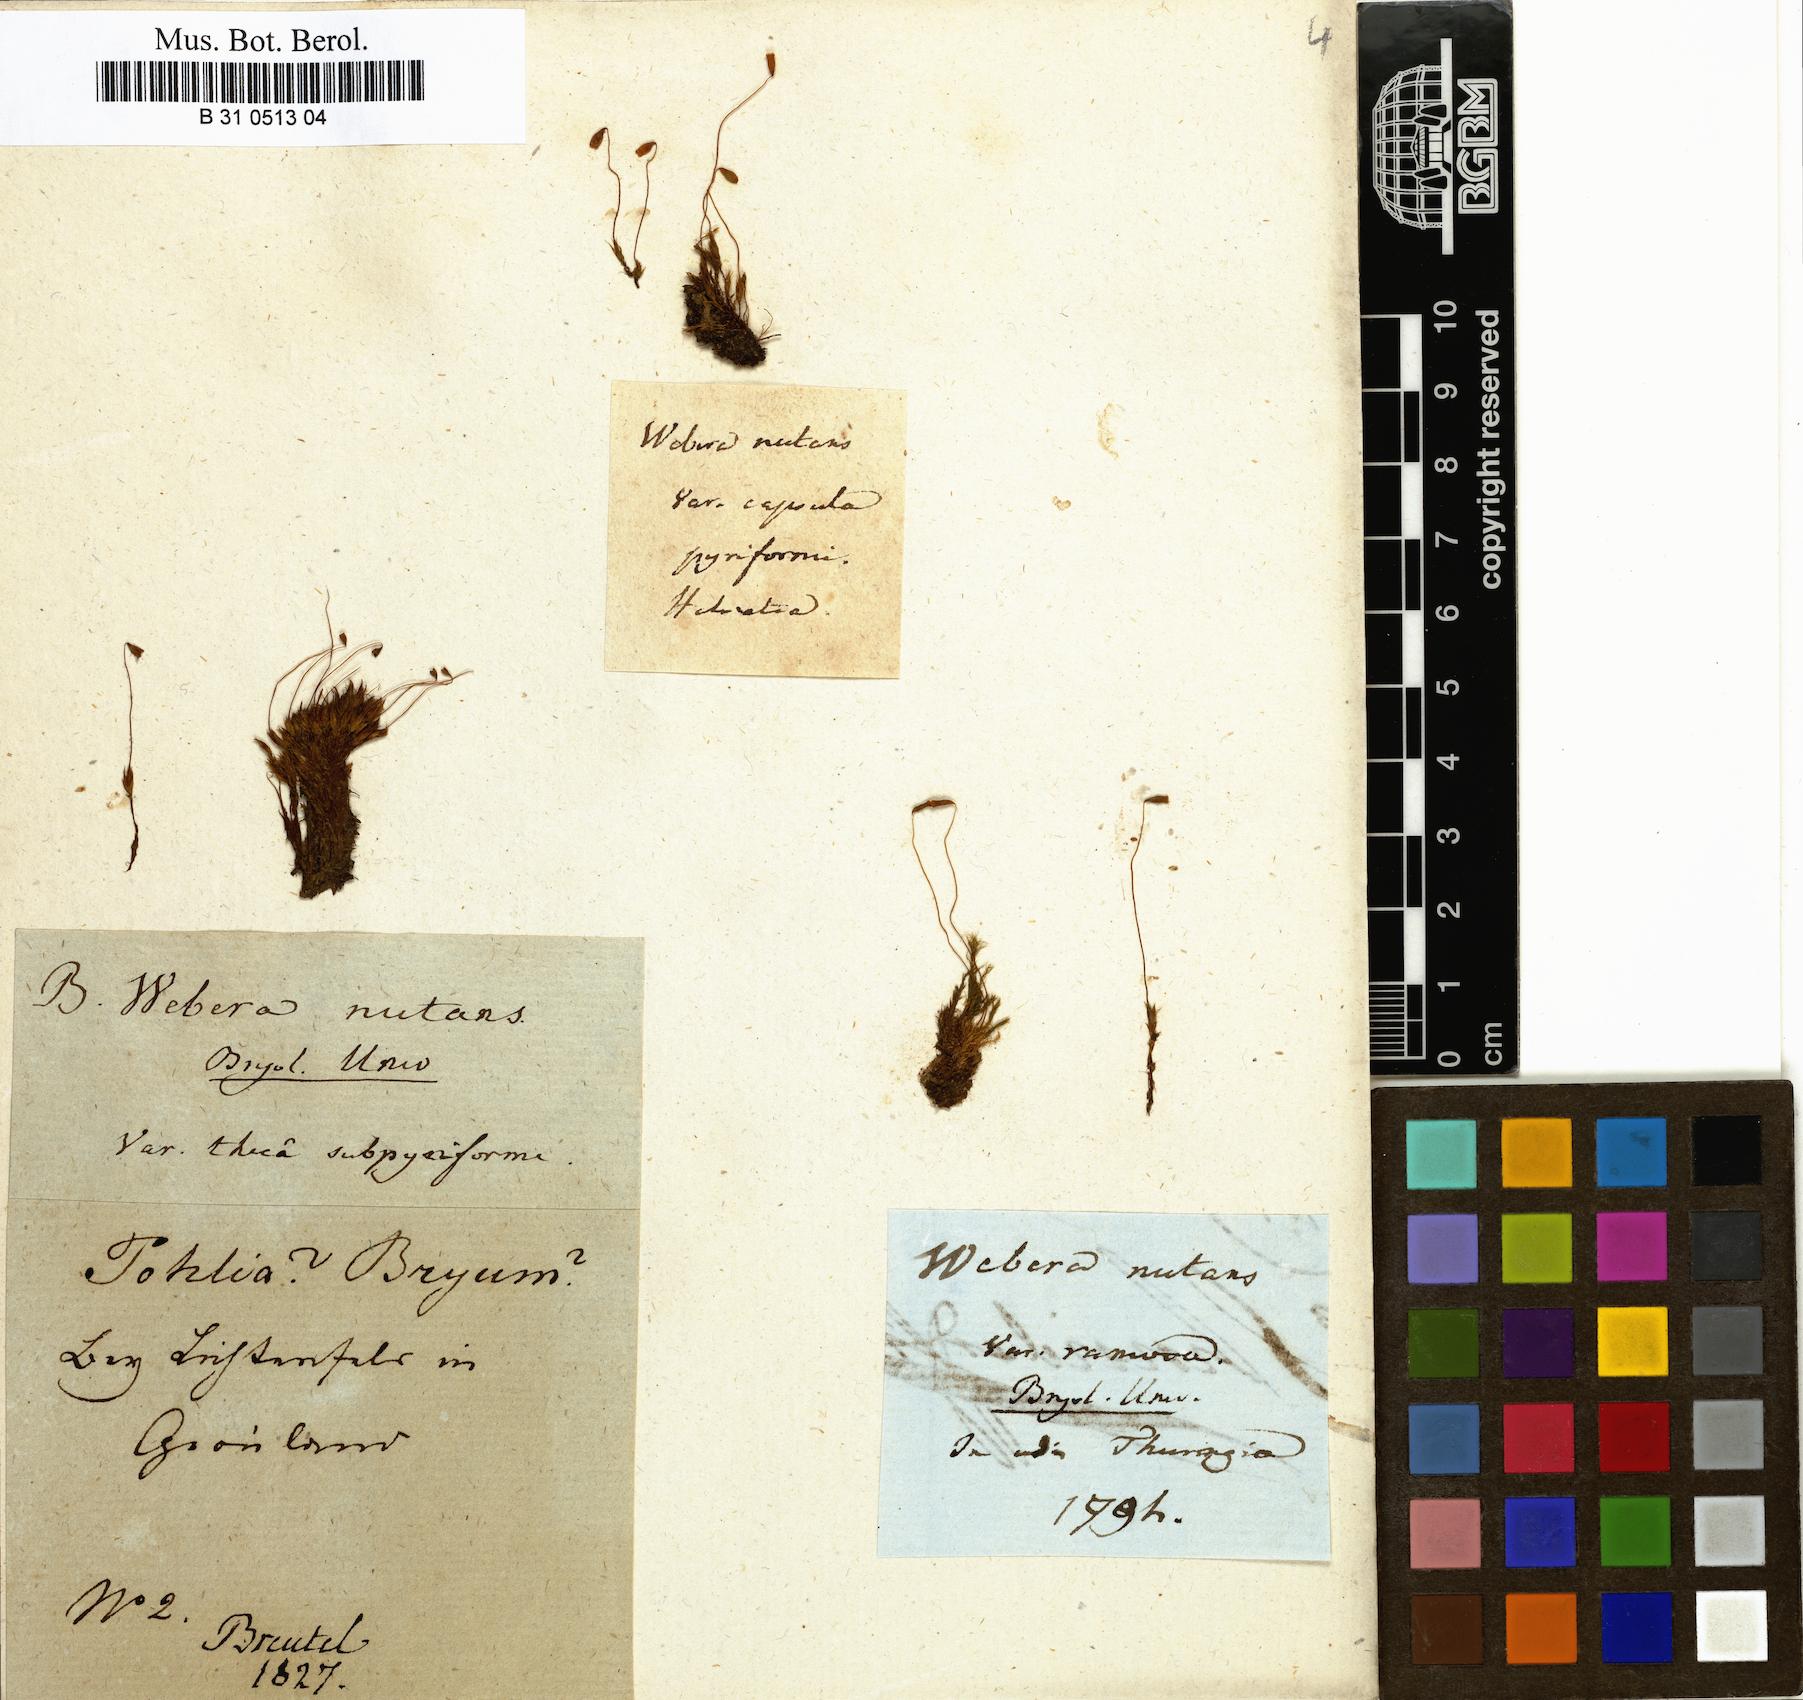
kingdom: Plantae
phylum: Bryophyta
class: Bryopsida
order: Bryales
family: Mniaceae
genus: Pohlia
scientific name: Pohlia nutans
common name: Nodding thread-moss
